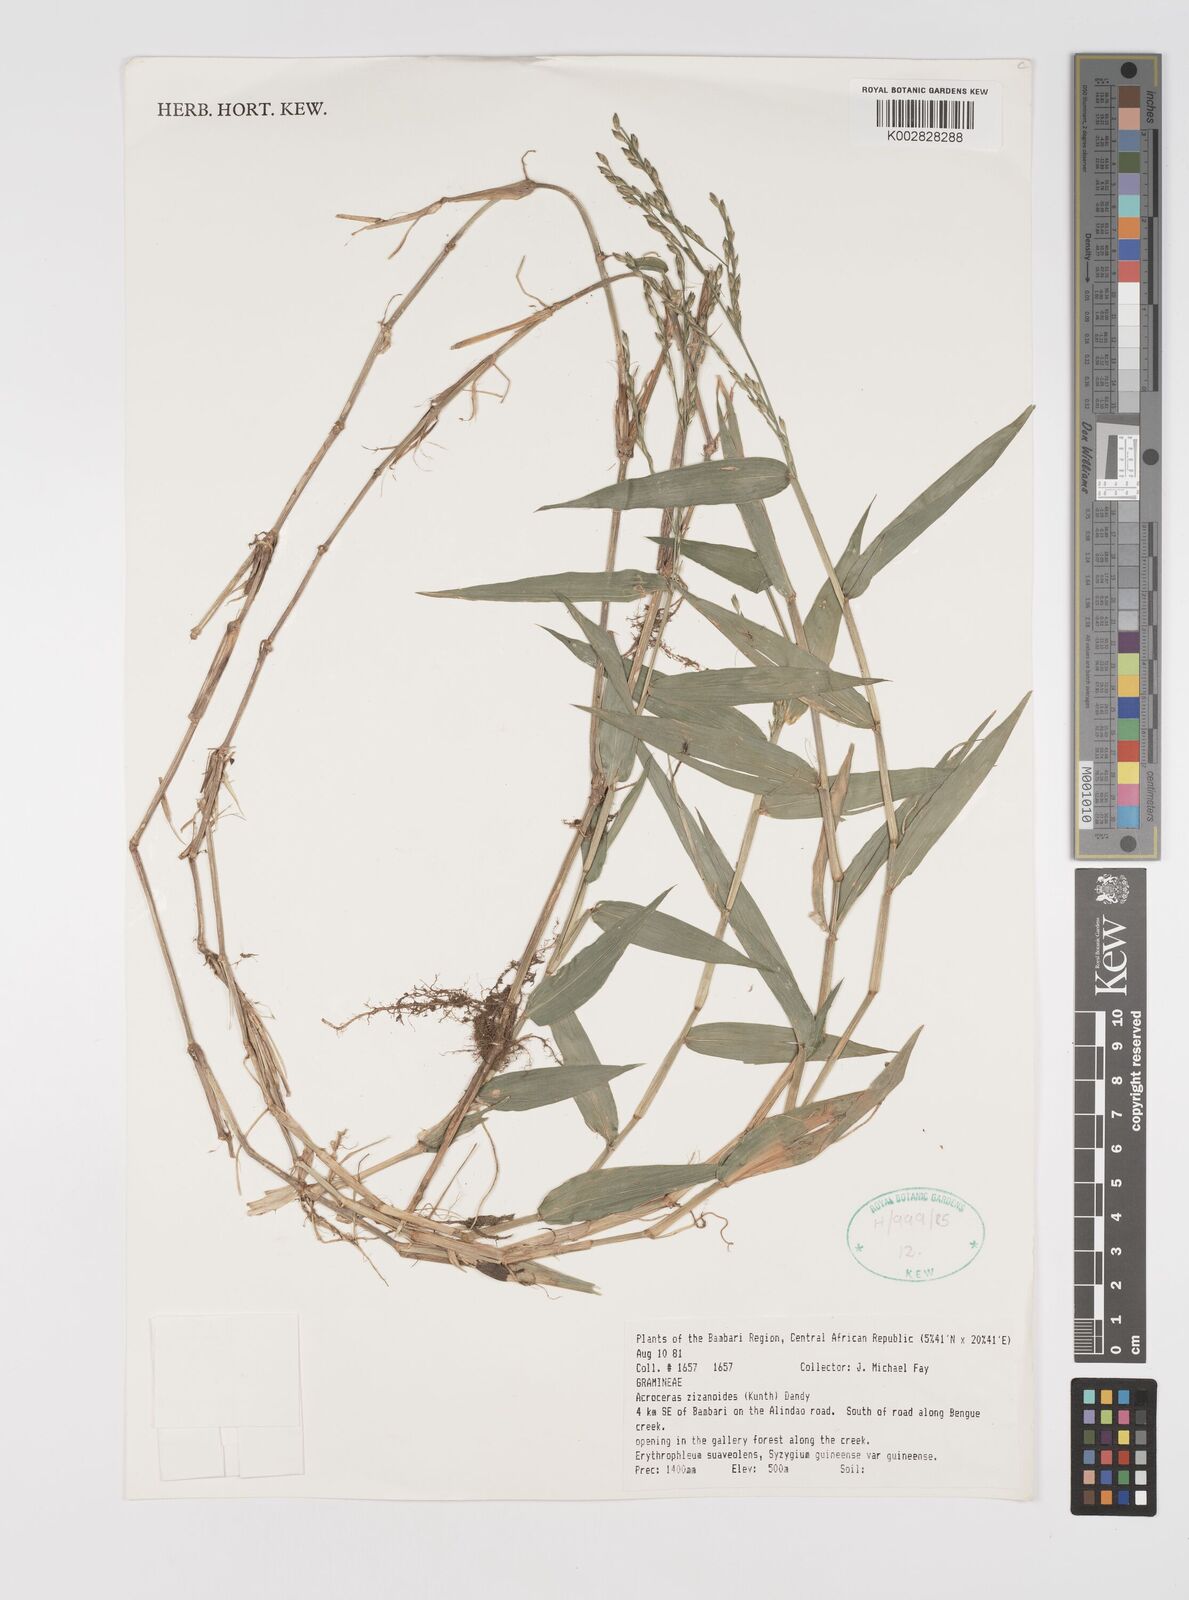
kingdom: Plantae
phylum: Tracheophyta
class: Liliopsida
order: Poales
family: Poaceae
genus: Acroceras
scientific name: Acroceras zizanioides
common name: Oat grass
